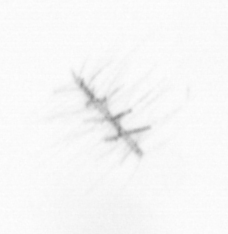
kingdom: Chromista
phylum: Ochrophyta
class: Bacillariophyceae
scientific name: Bacillariophyceae
